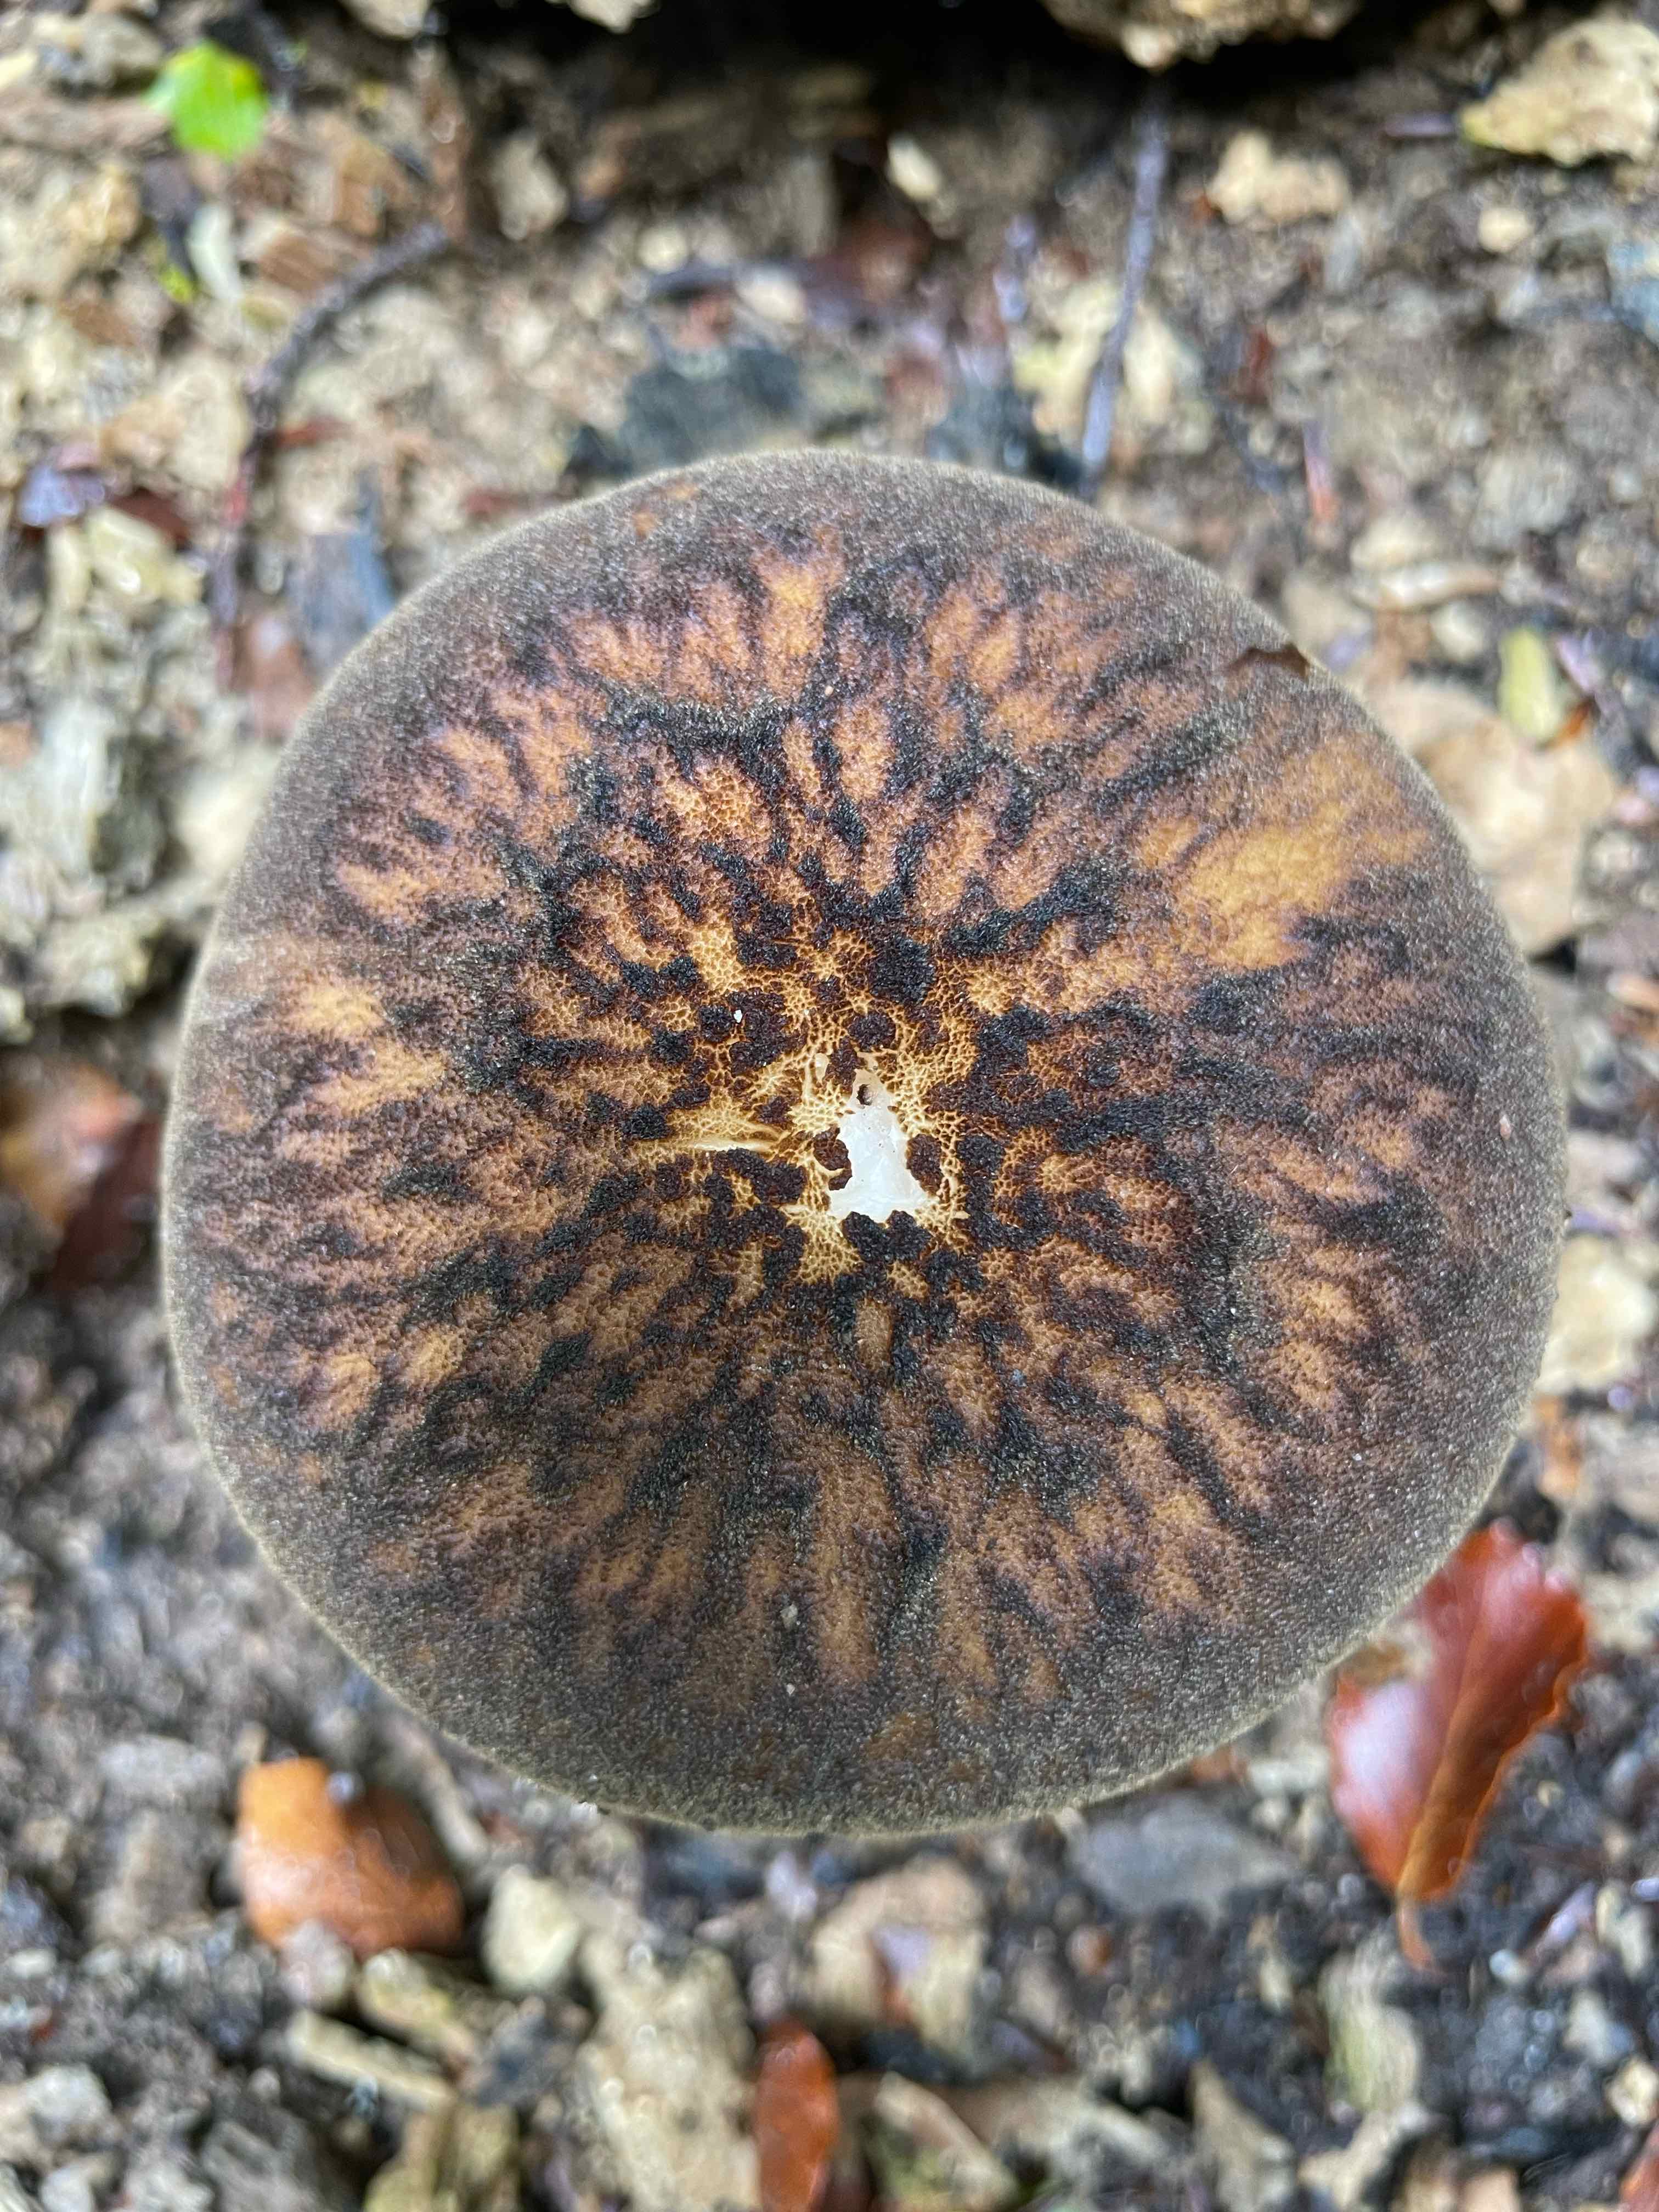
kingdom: Fungi
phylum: Basidiomycota
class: Agaricomycetes
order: Agaricales
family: Pluteaceae
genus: Pluteus
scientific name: Pluteus umbrosus
